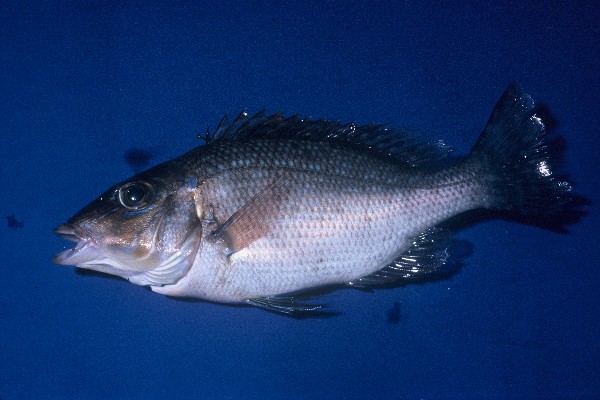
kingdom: Animalia
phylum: Chordata
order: Perciformes
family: Lethrinidae
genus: Lethrinus
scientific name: Lethrinus nebulosus
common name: Spangled emperor
